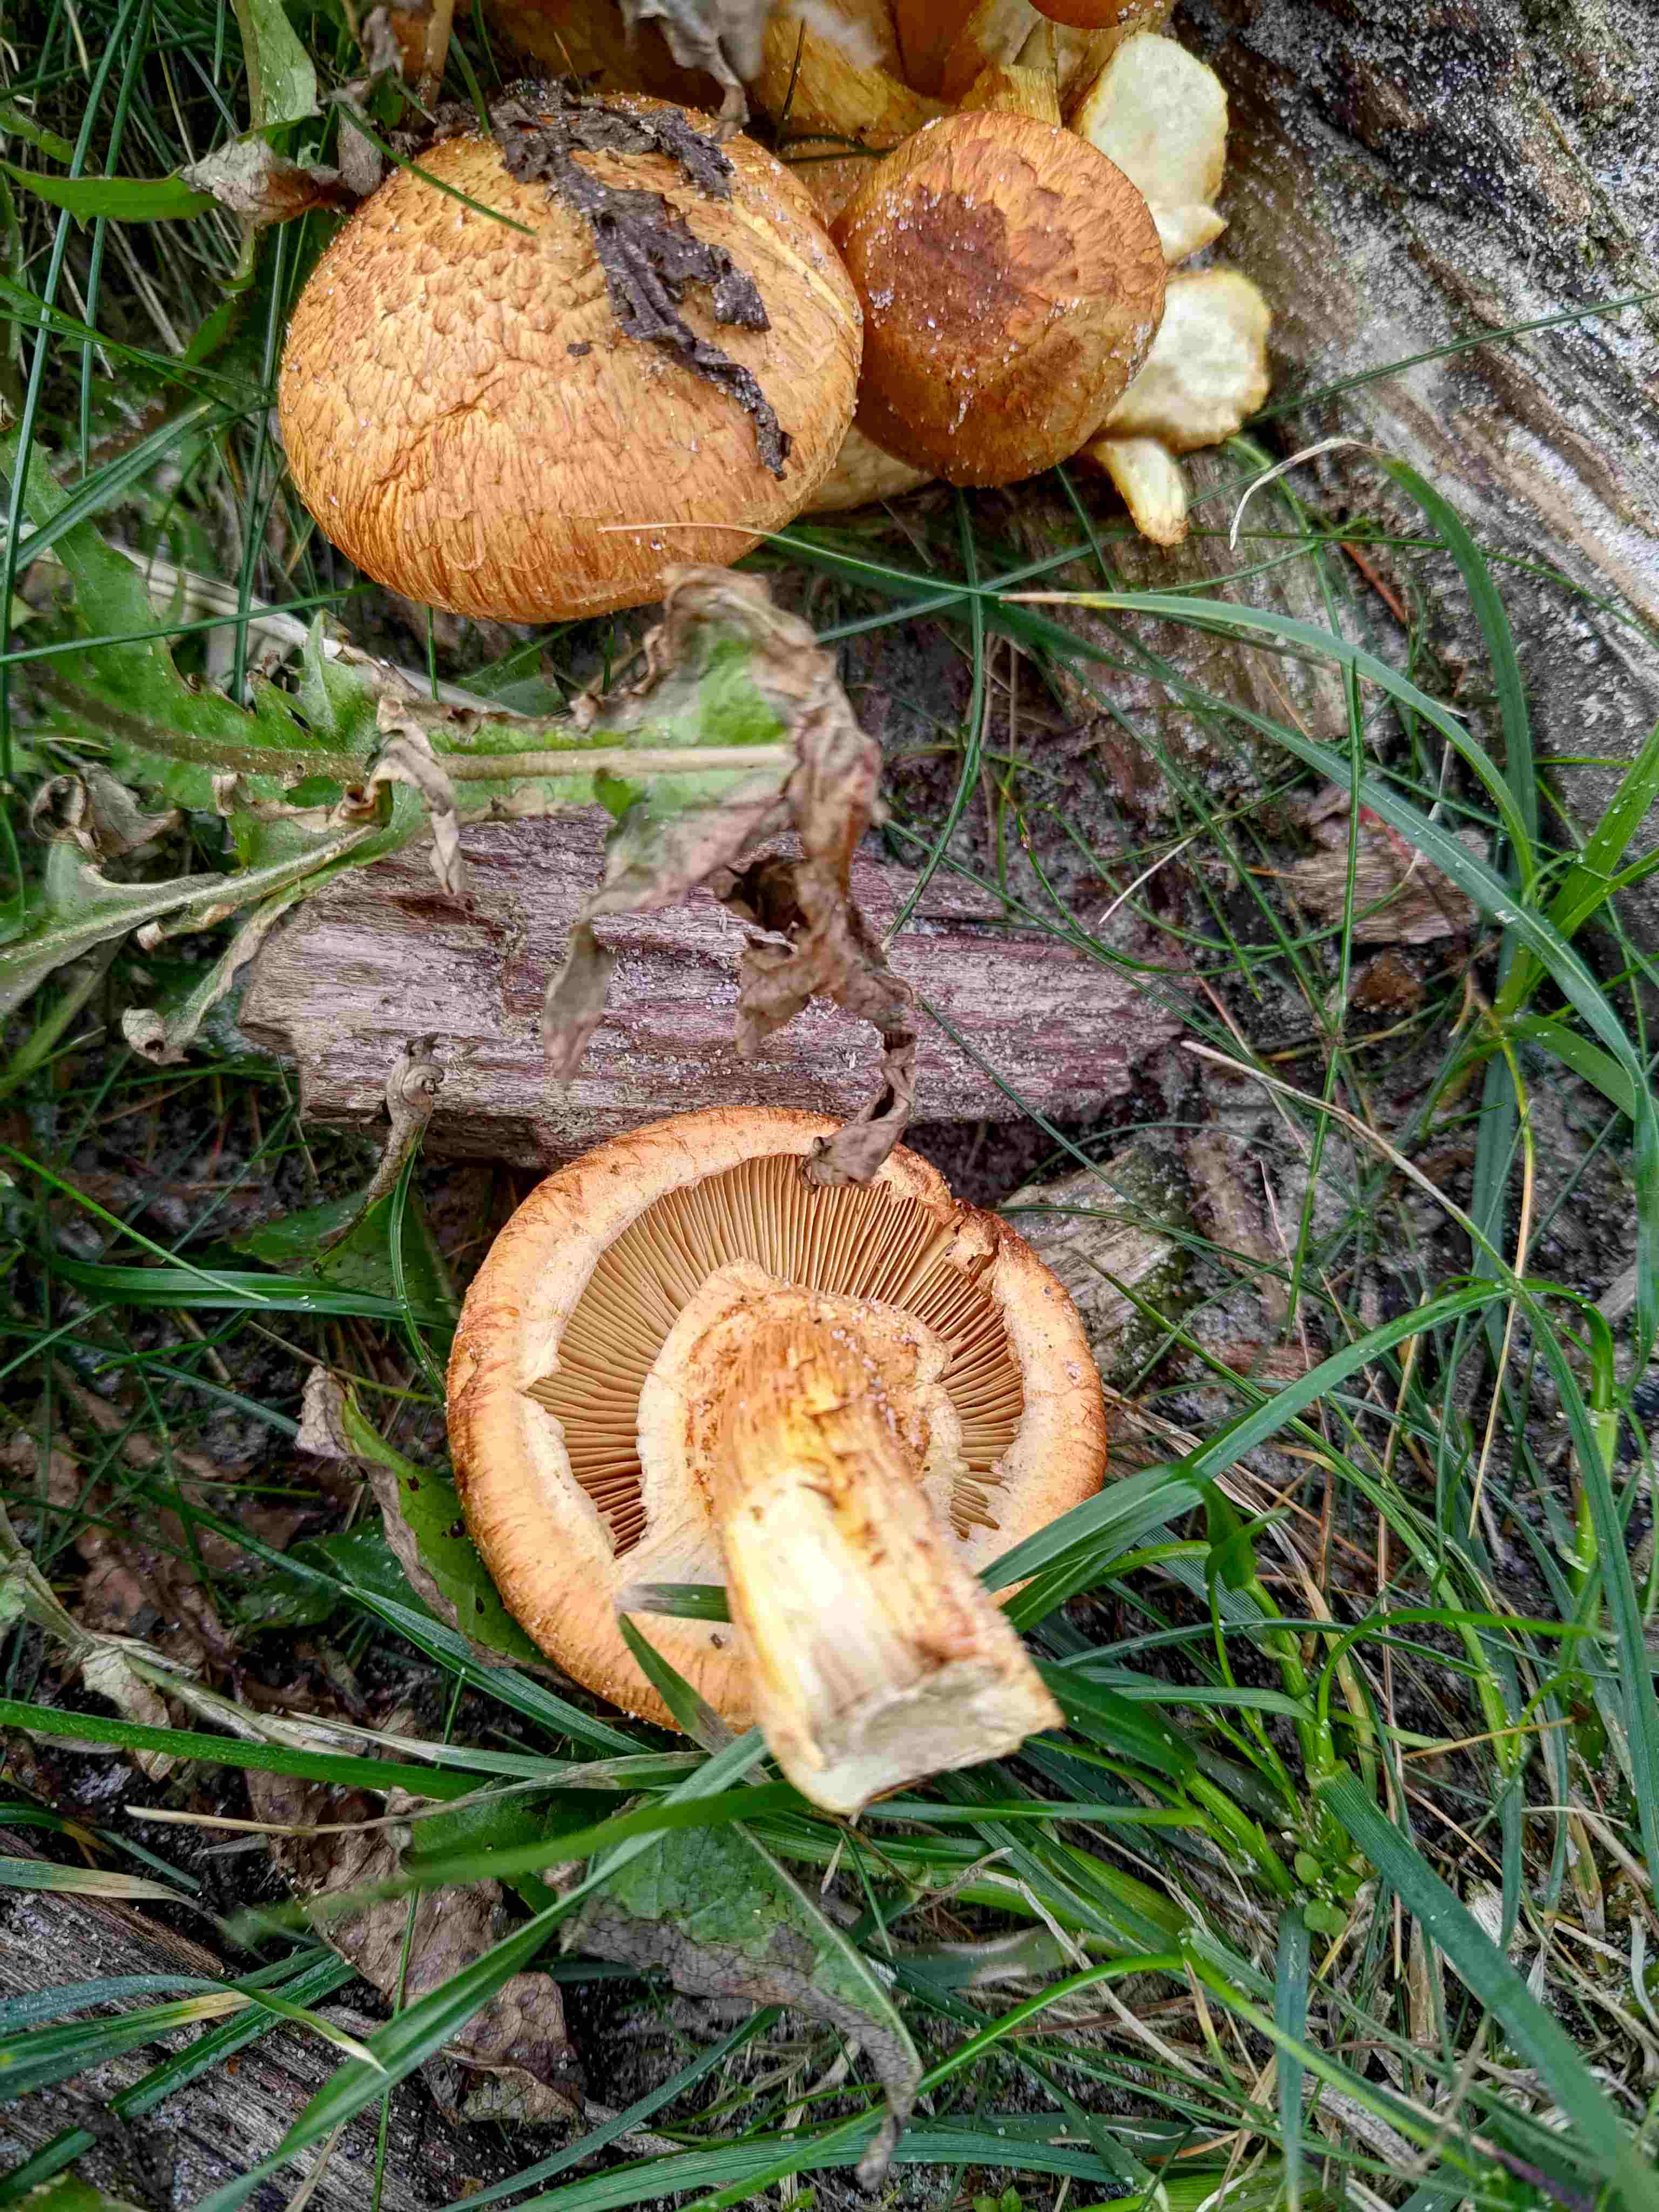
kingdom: Fungi
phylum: Basidiomycota
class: Agaricomycetes
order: Agaricales
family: Hymenogastraceae
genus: Gymnopilus
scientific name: Gymnopilus spectabilis
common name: fibret flammehat
